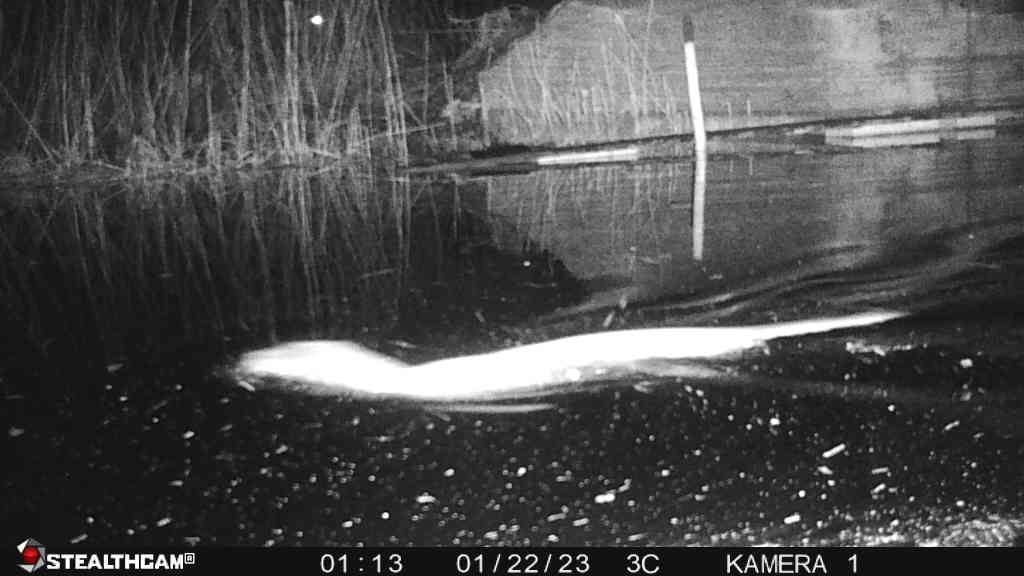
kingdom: Animalia
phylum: Chordata
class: Mammalia
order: Carnivora
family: Mustelidae
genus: Lutra
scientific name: Lutra lutra
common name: Odder
